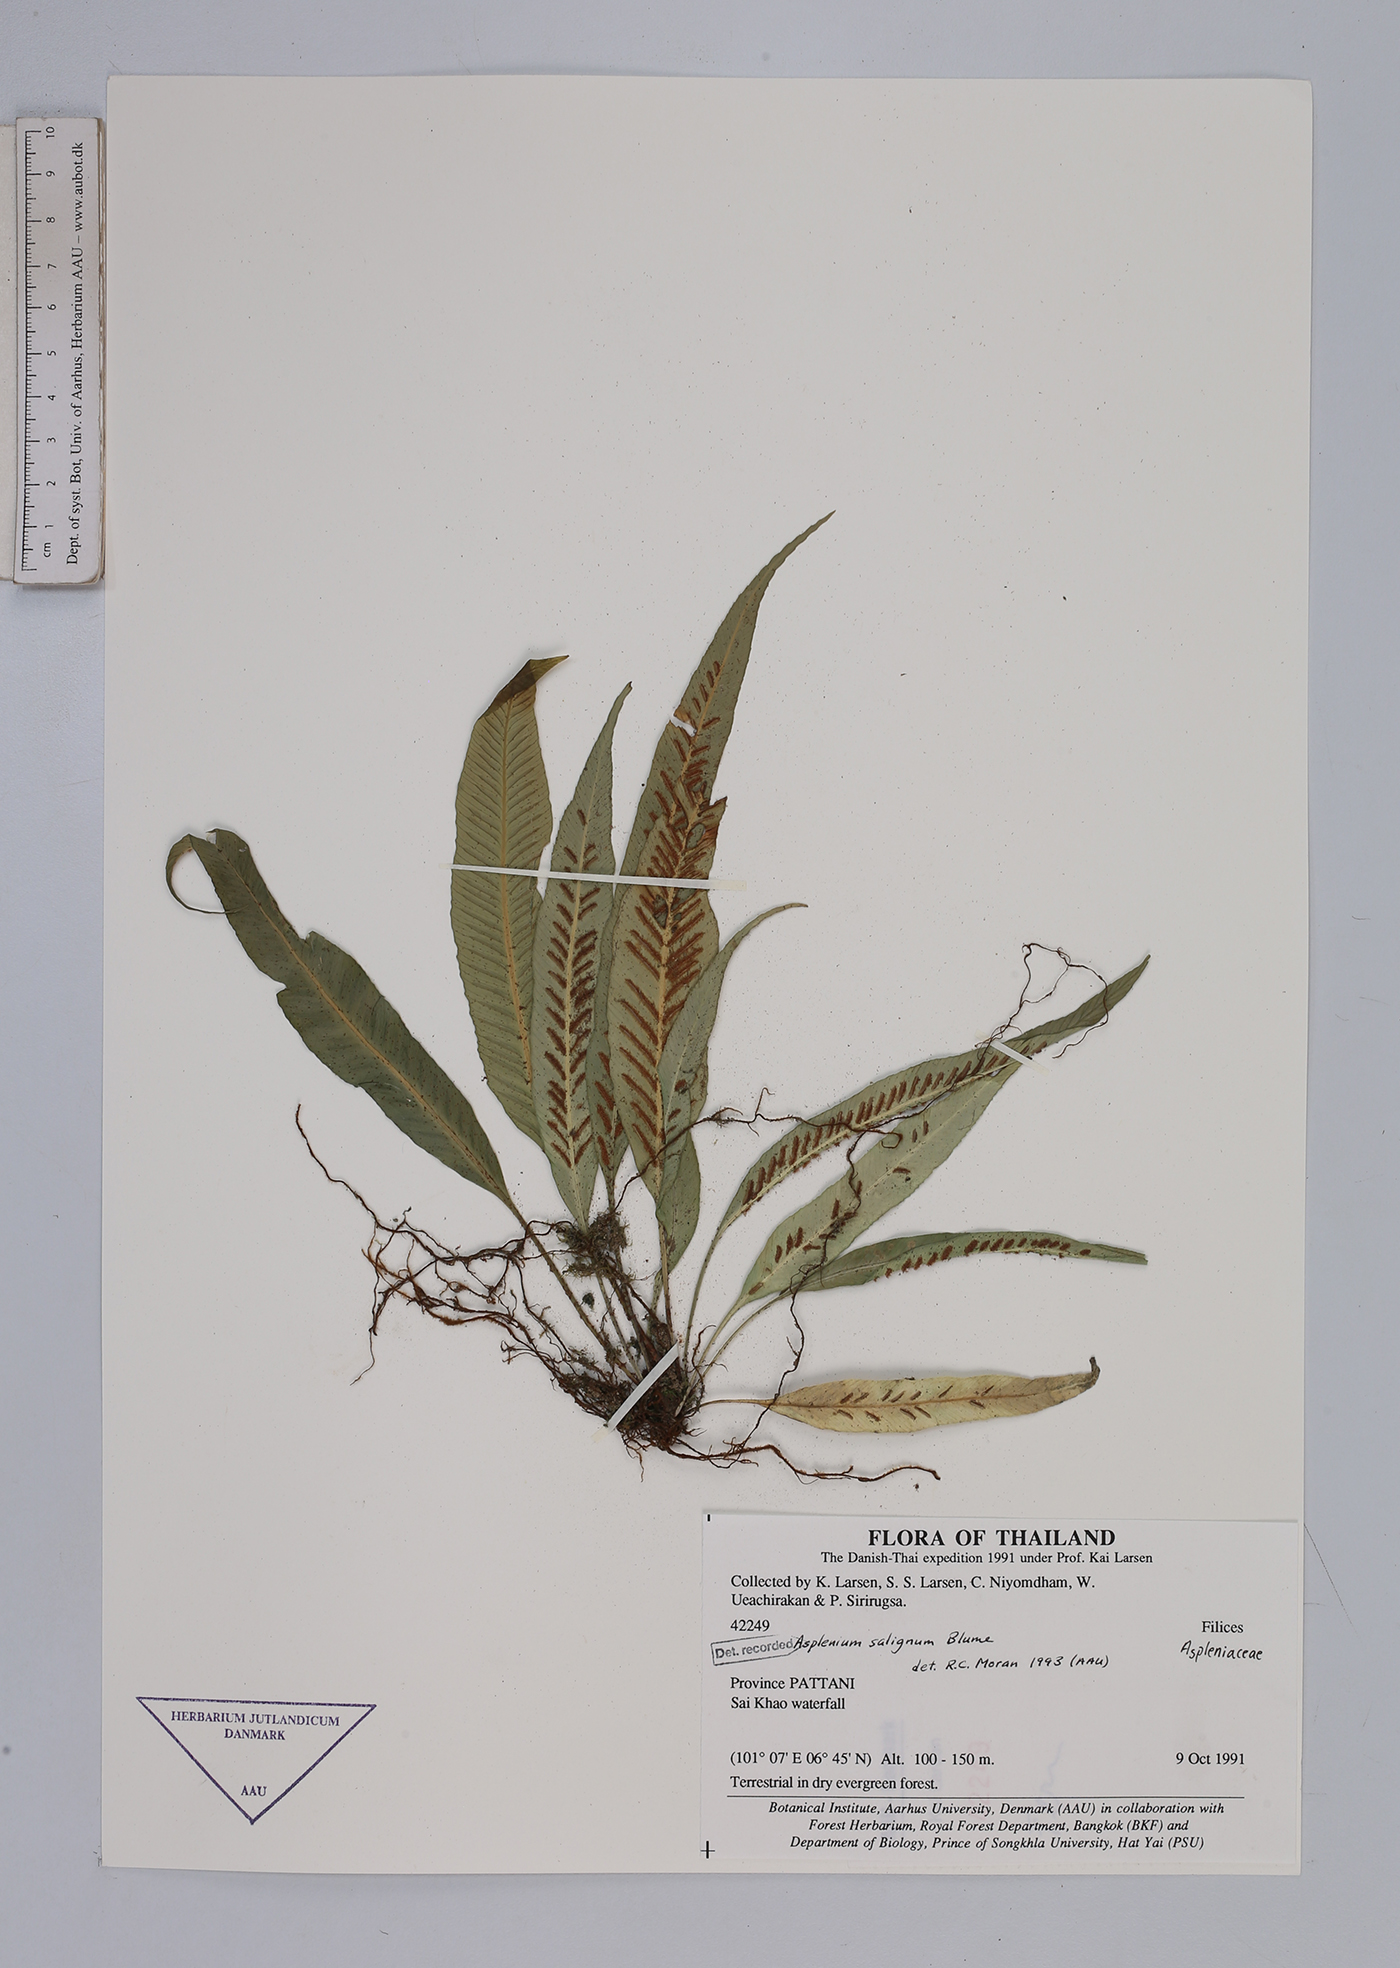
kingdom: Plantae
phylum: Tracheophyta
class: Polypodiopsida
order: Polypodiales
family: Aspleniaceae
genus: Asplenium
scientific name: Asplenium salignum
